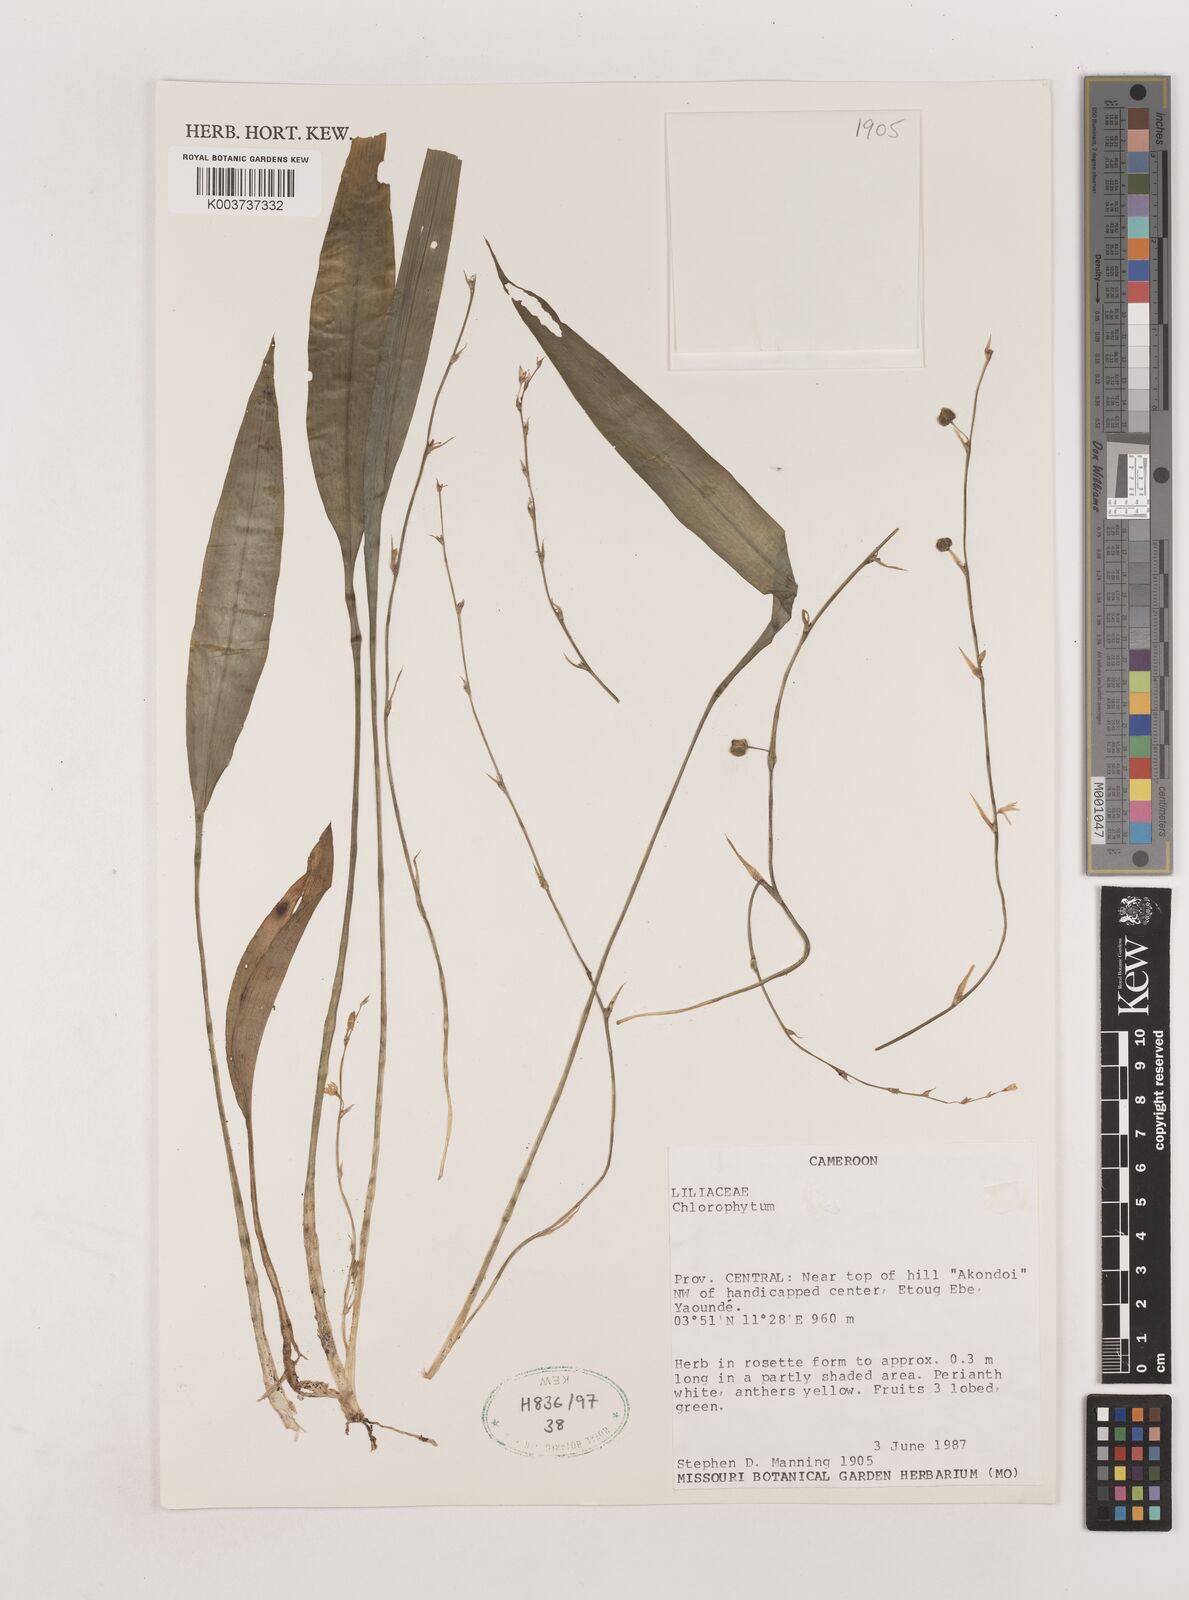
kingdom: Plantae
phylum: Tracheophyta
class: Liliopsida
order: Asparagales
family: Asparagaceae
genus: Chlorophytum
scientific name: Chlorophytum
